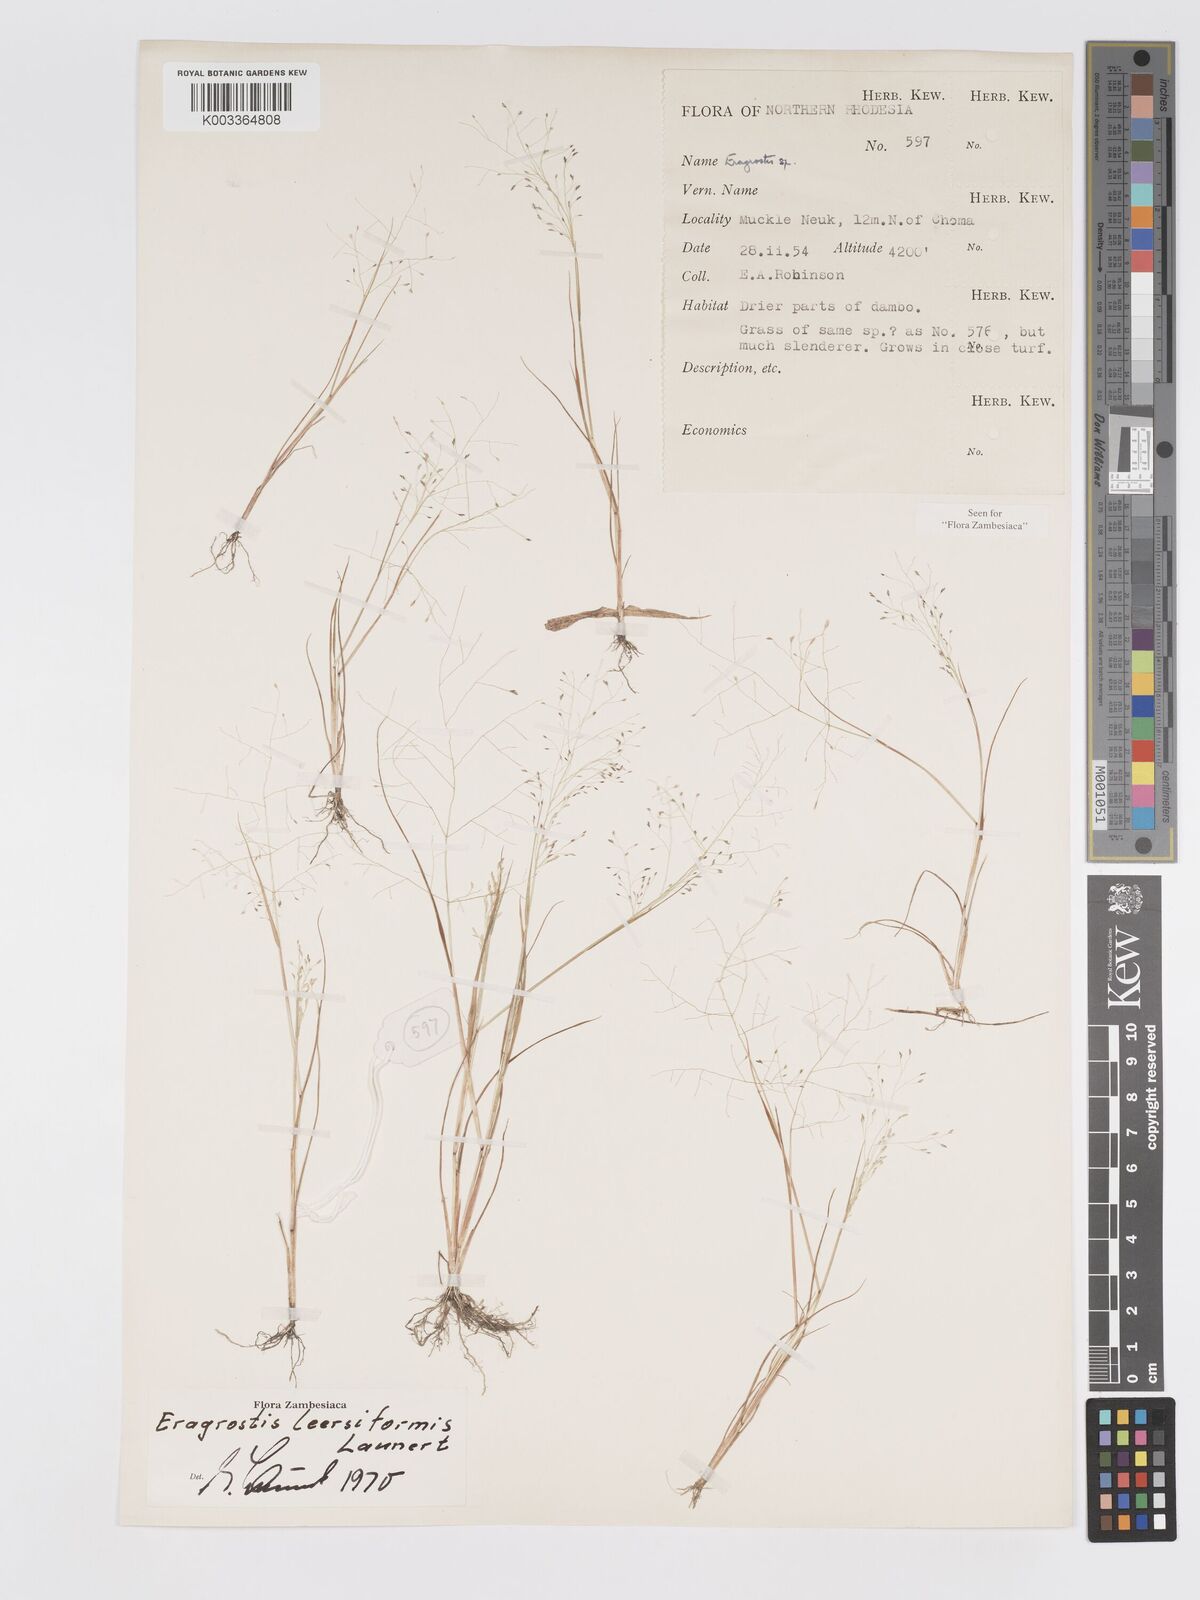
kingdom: Plantae
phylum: Tracheophyta
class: Liliopsida
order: Poales
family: Poaceae
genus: Eragrostis
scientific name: Eragrostis leersiiformis
